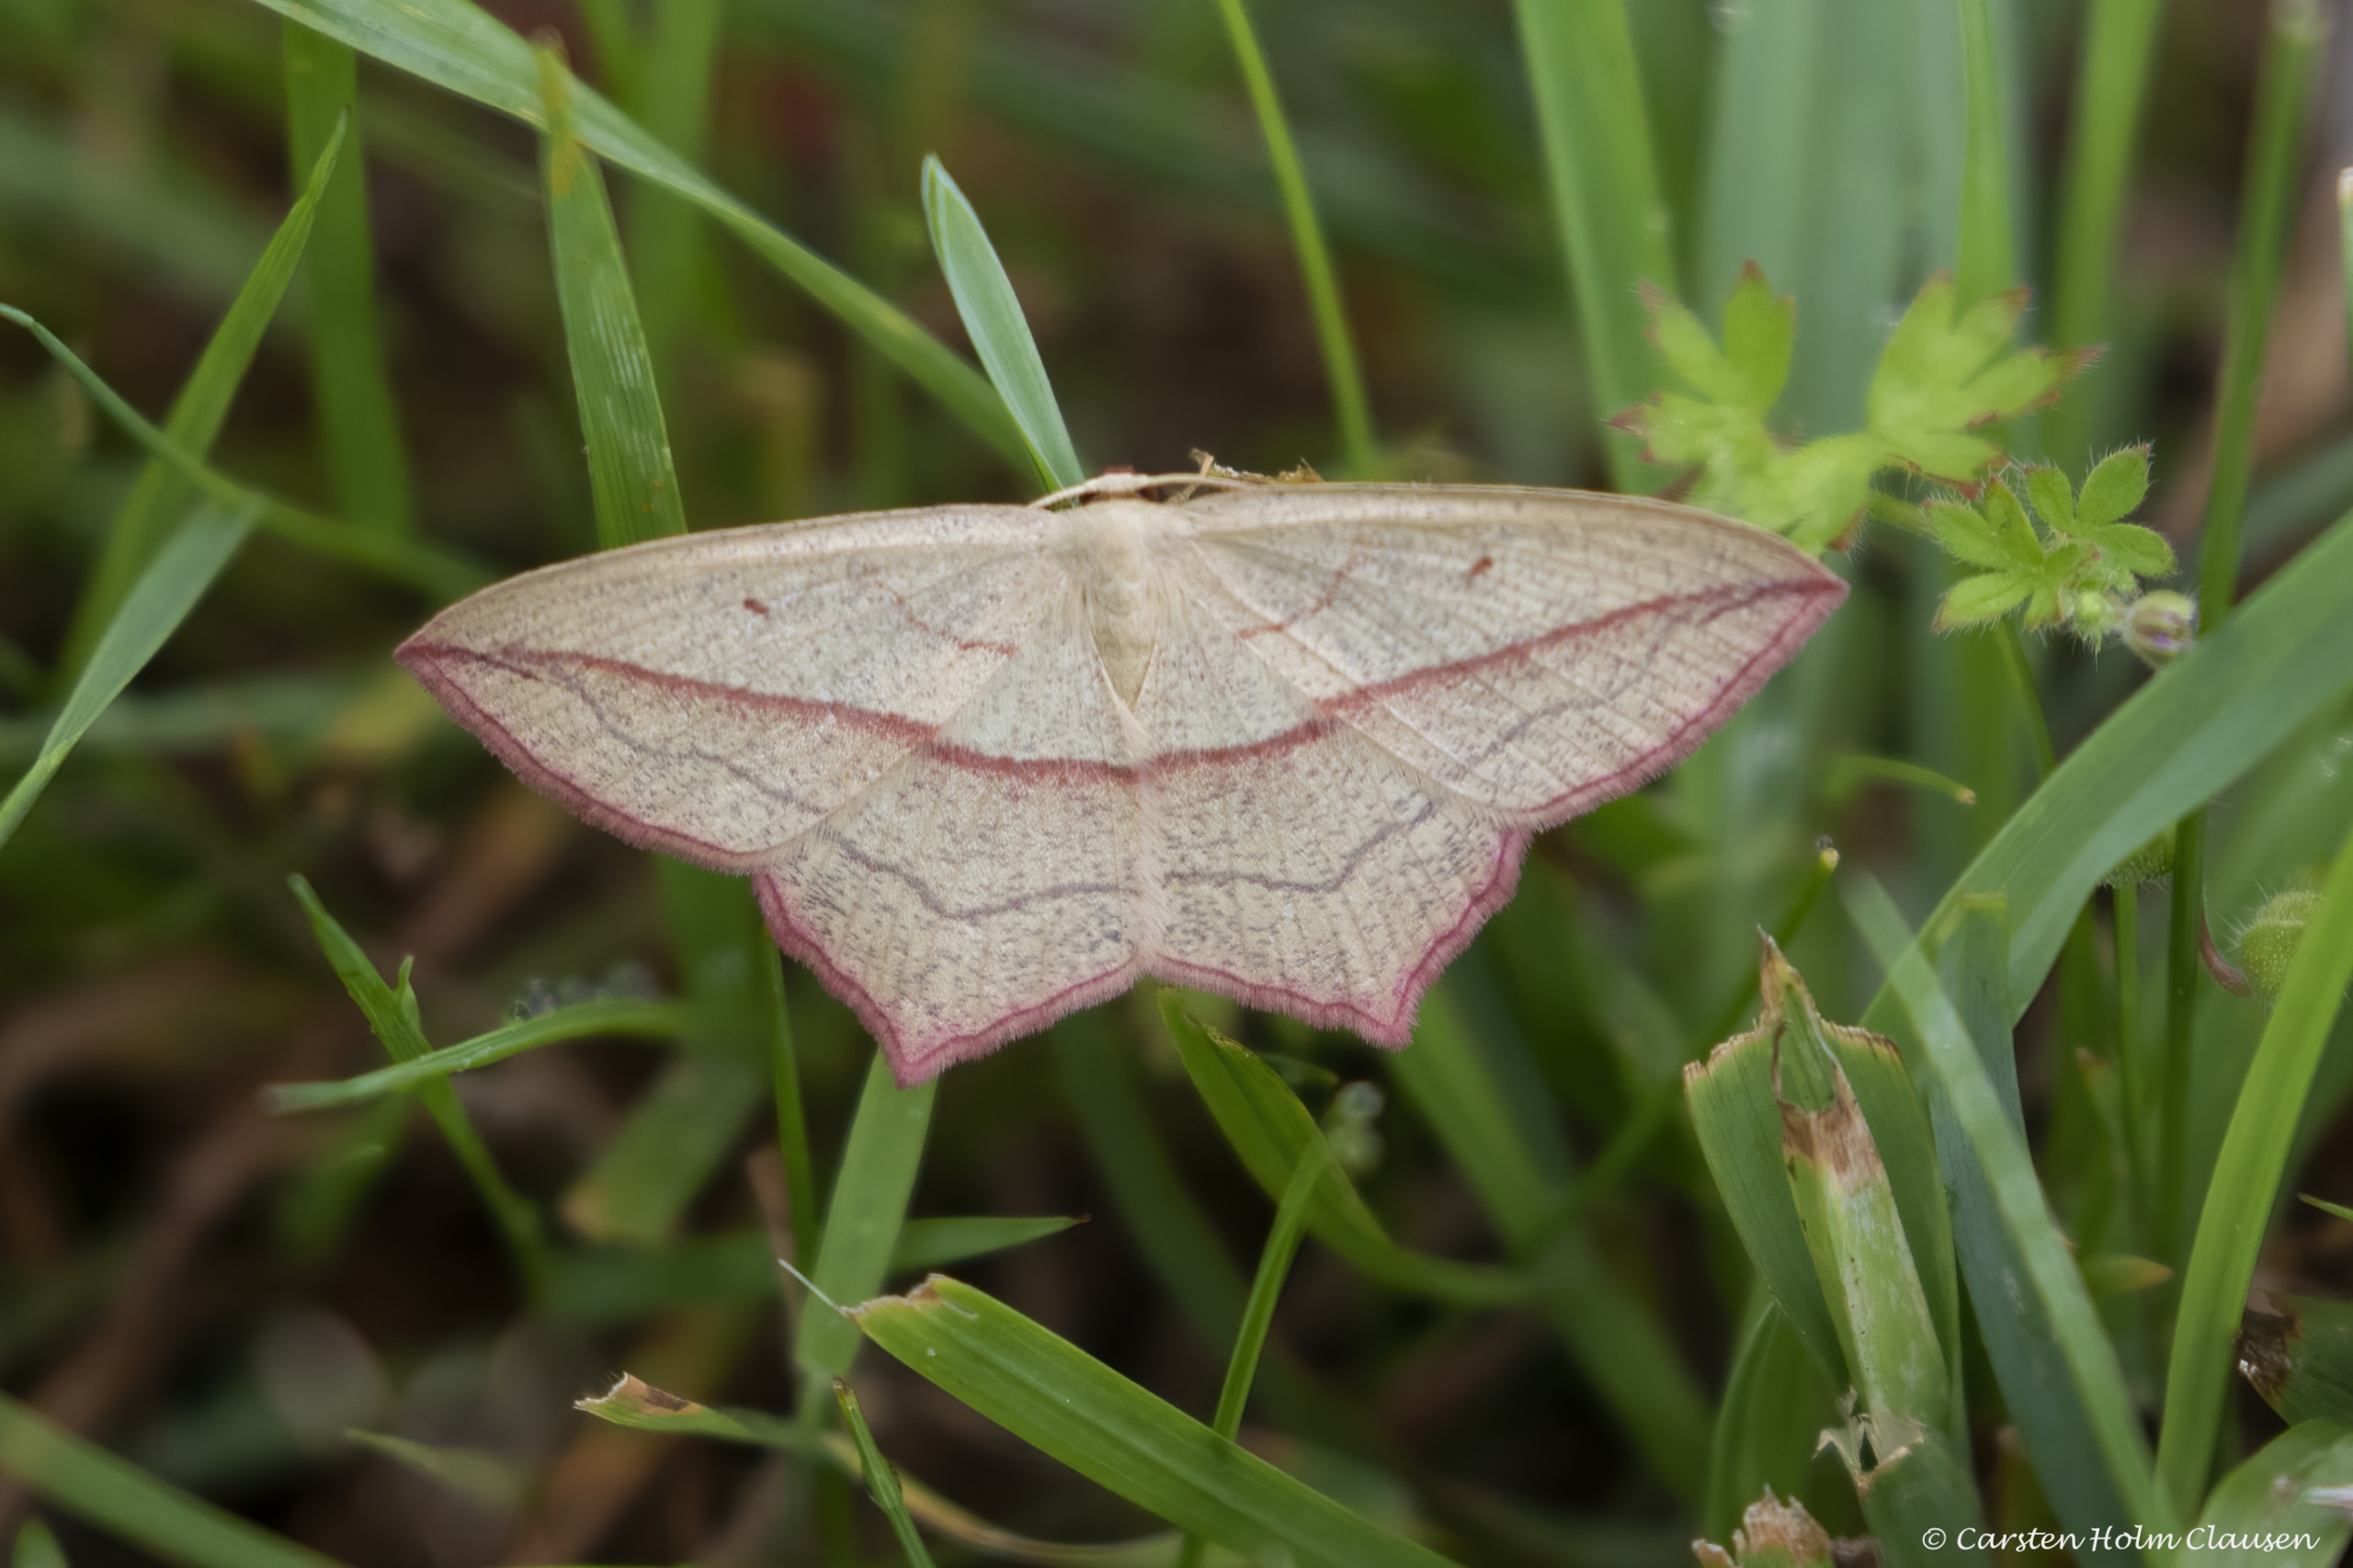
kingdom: Animalia
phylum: Arthropoda
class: Insecta
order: Lepidoptera
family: Geometridae
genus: Timandra
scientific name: Timandra comae
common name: Gul syremåler
